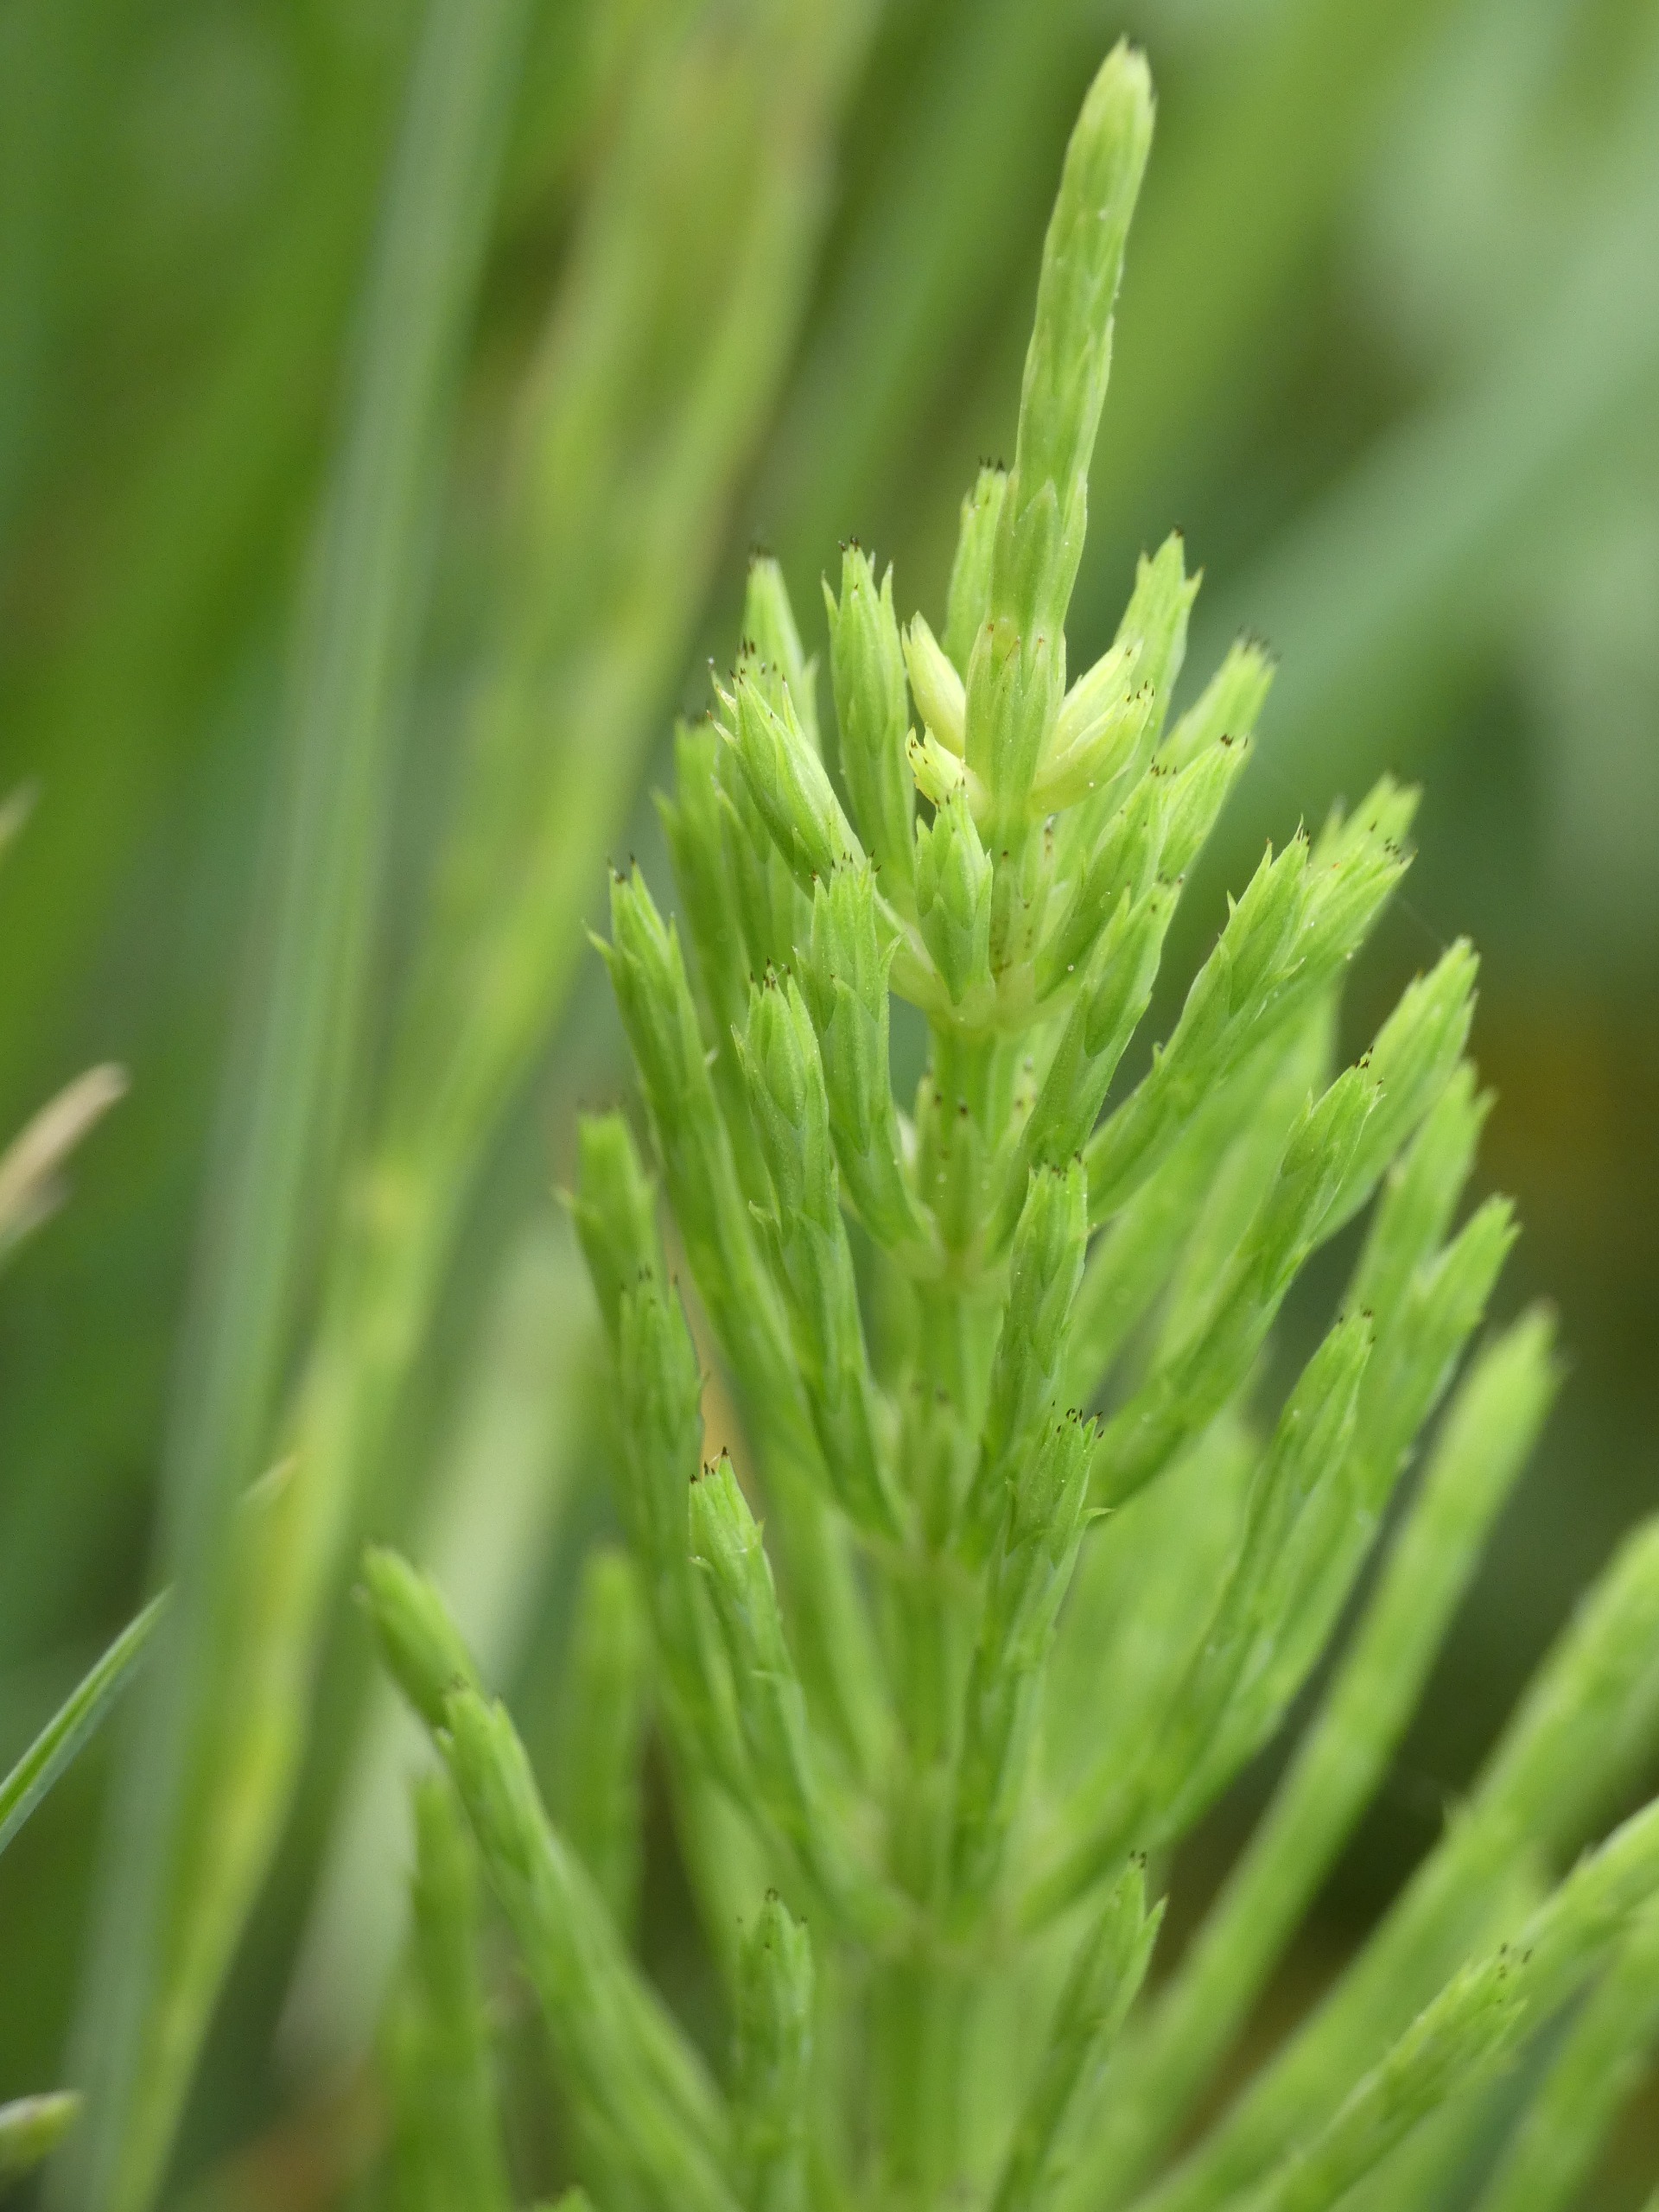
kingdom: Plantae
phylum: Tracheophyta
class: Polypodiopsida
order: Equisetales
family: Equisetaceae
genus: Equisetum
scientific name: Equisetum arvense
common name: Ager-padderok
